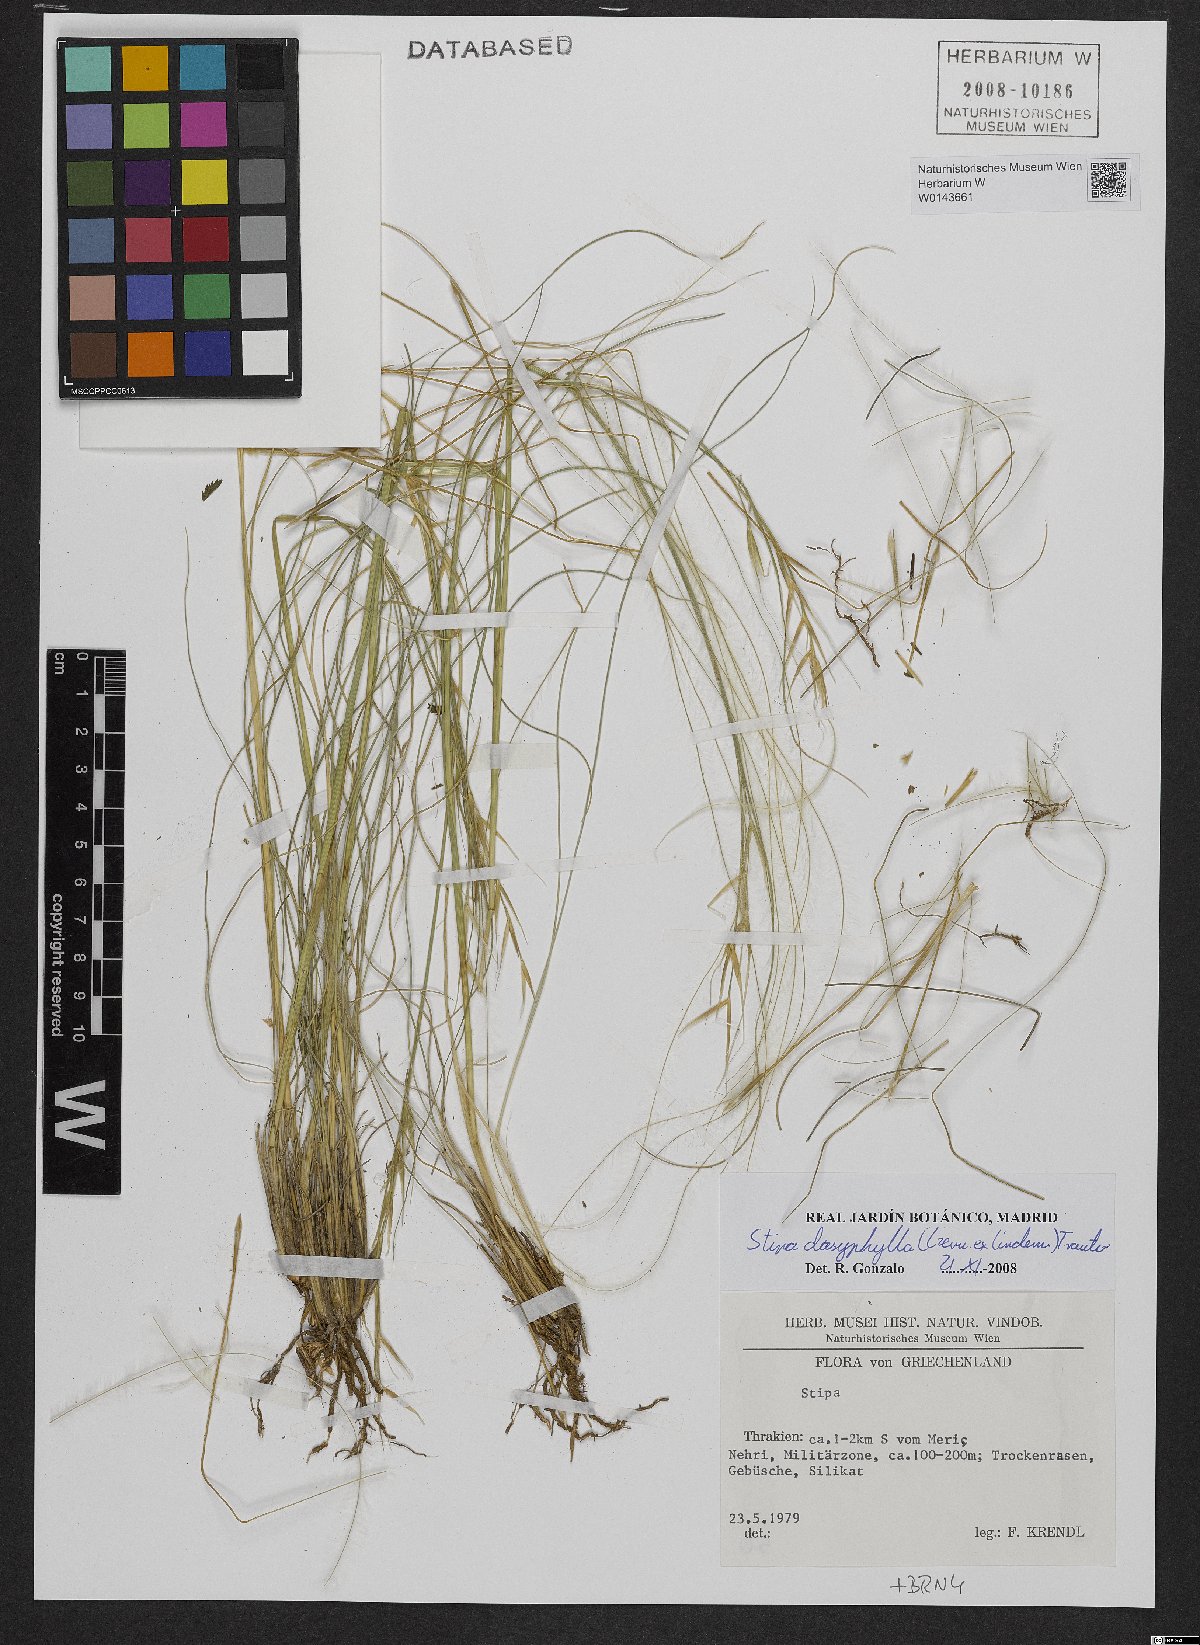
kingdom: Plantae
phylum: Tracheophyta
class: Liliopsida
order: Poales
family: Poaceae
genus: Stipa
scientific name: Stipa dasyphylla
